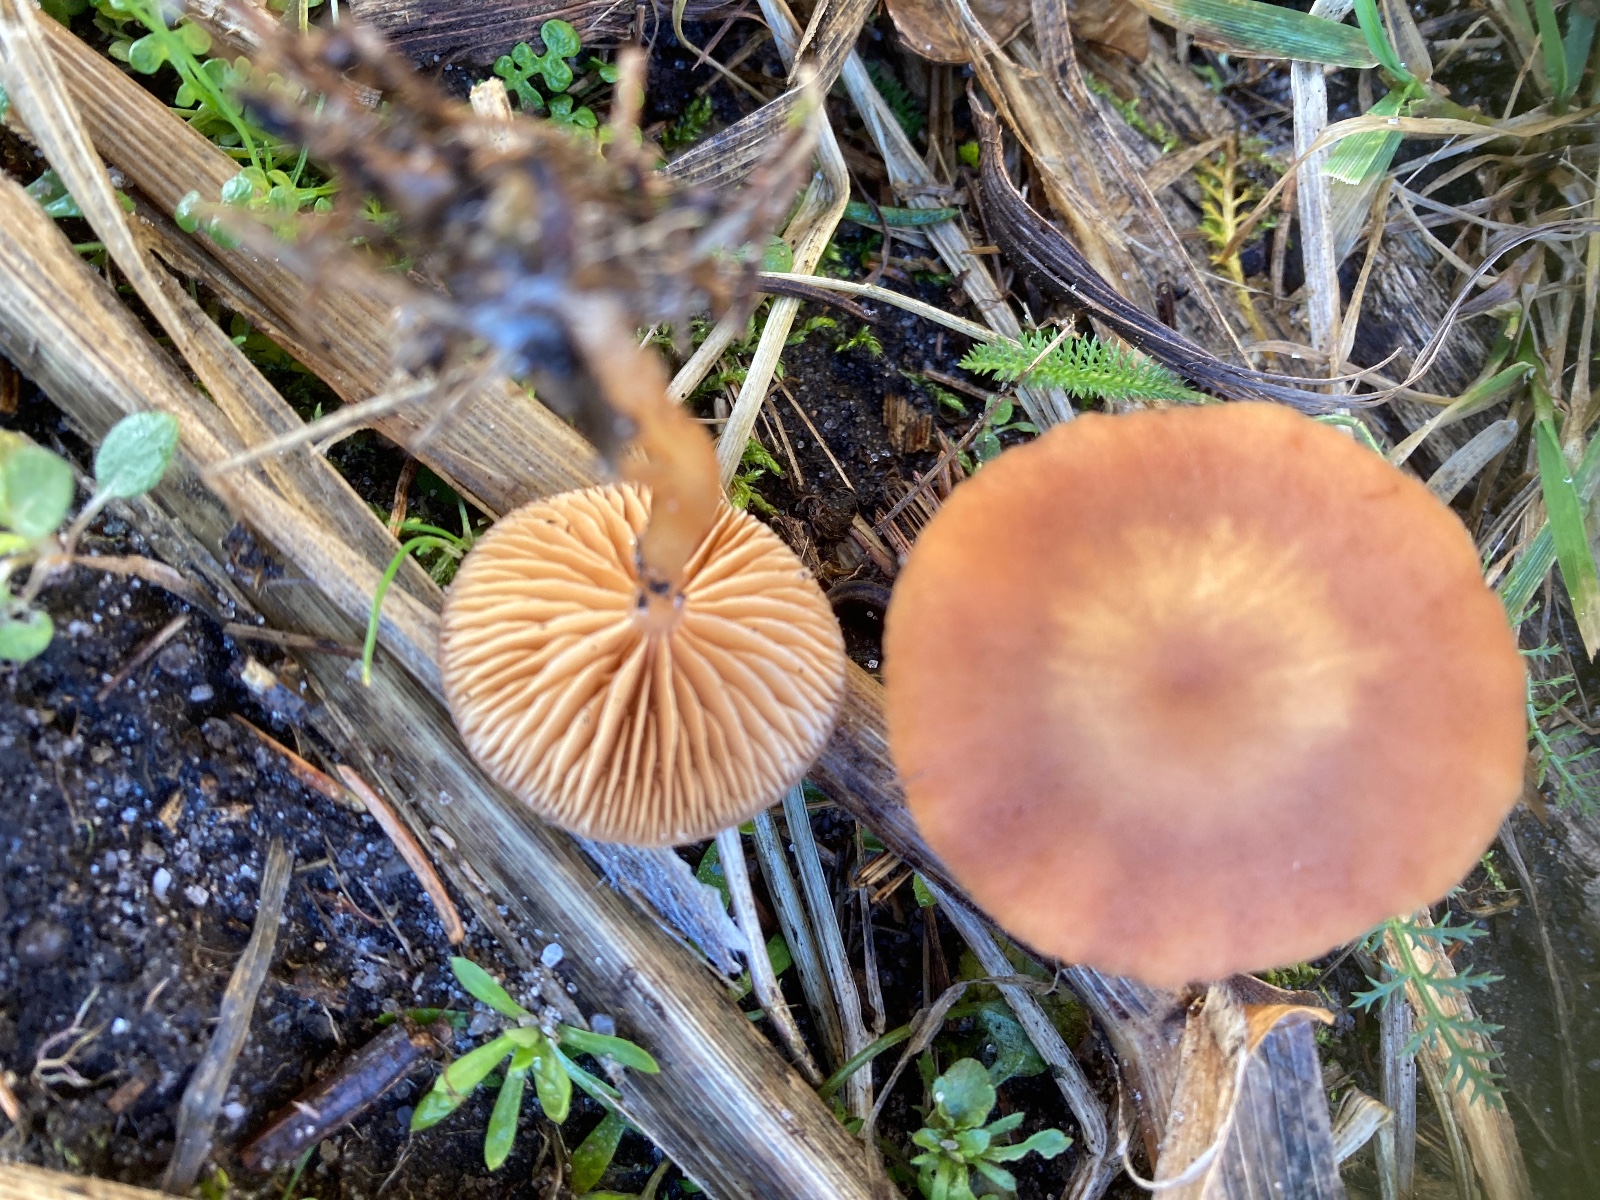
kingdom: Fungi
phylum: Basidiomycota
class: Agaricomycetes
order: Agaricales
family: Tubariaceae
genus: Tubaria
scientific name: Tubaria furfuracea
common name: kliddet fnughat
